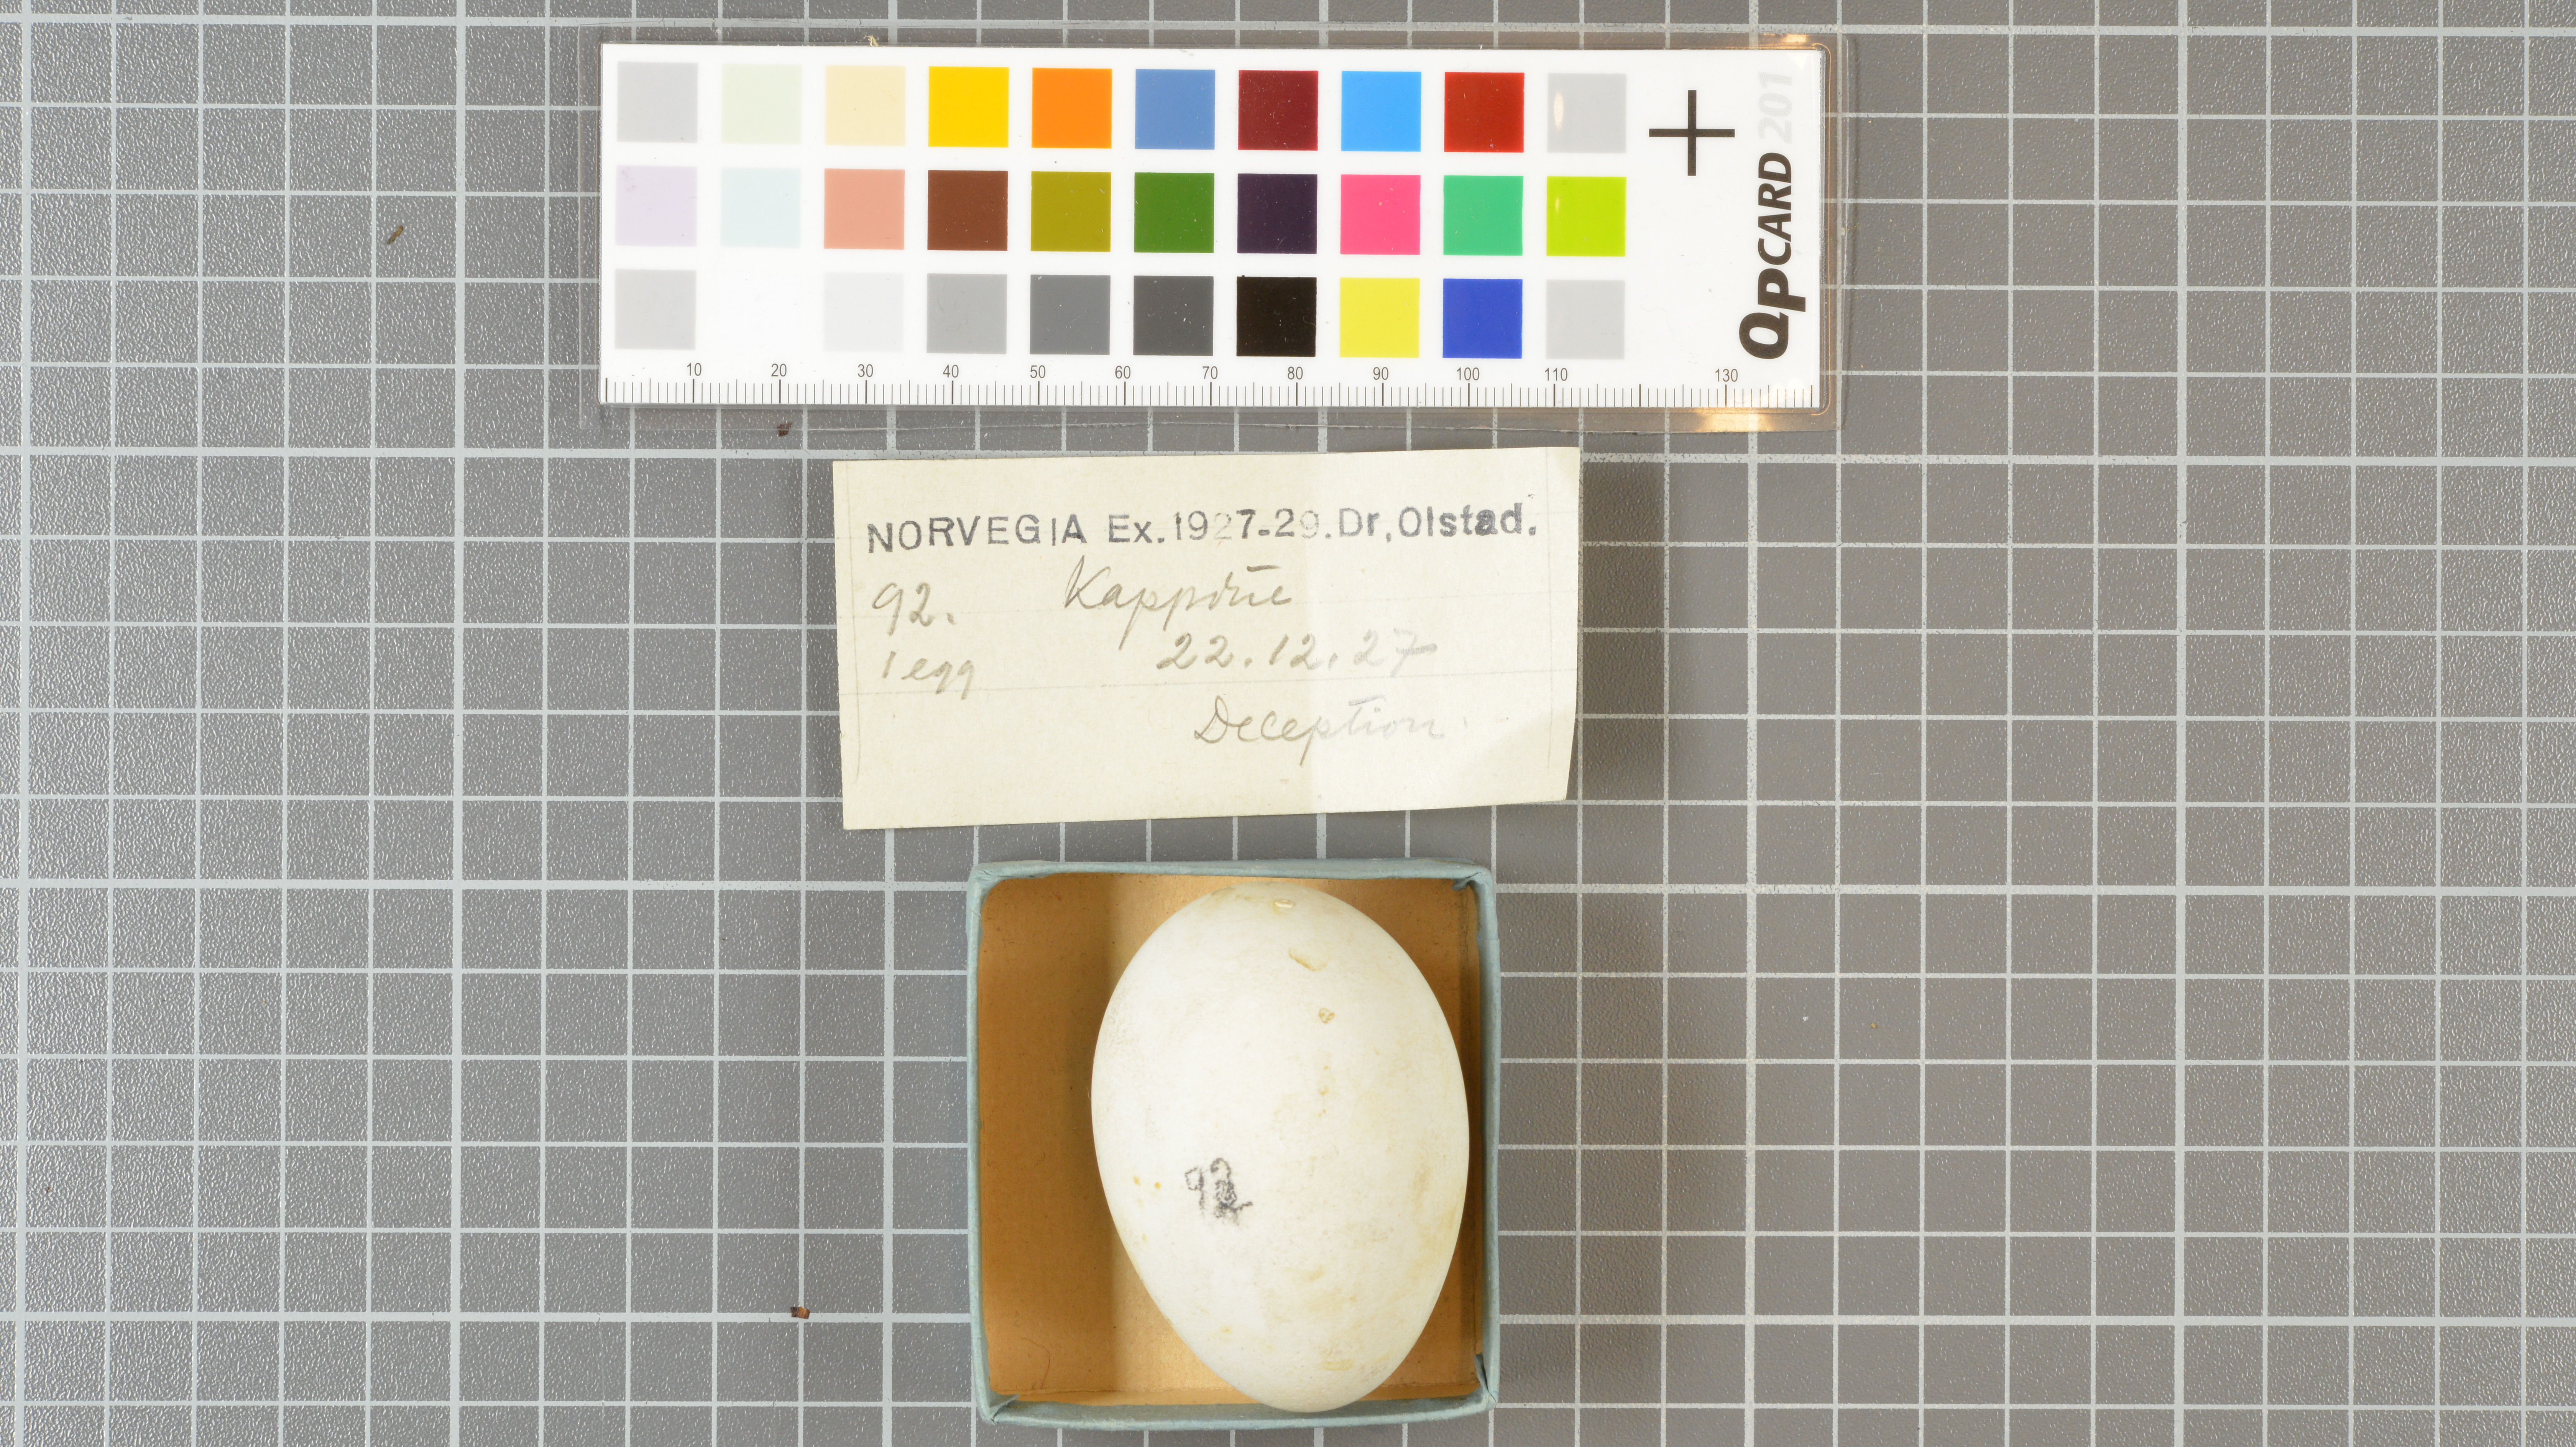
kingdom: Animalia
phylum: Chordata
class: Aves
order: Procellariiformes
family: Procellariidae
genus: Daption
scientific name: Daption capense
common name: Cape petrel
